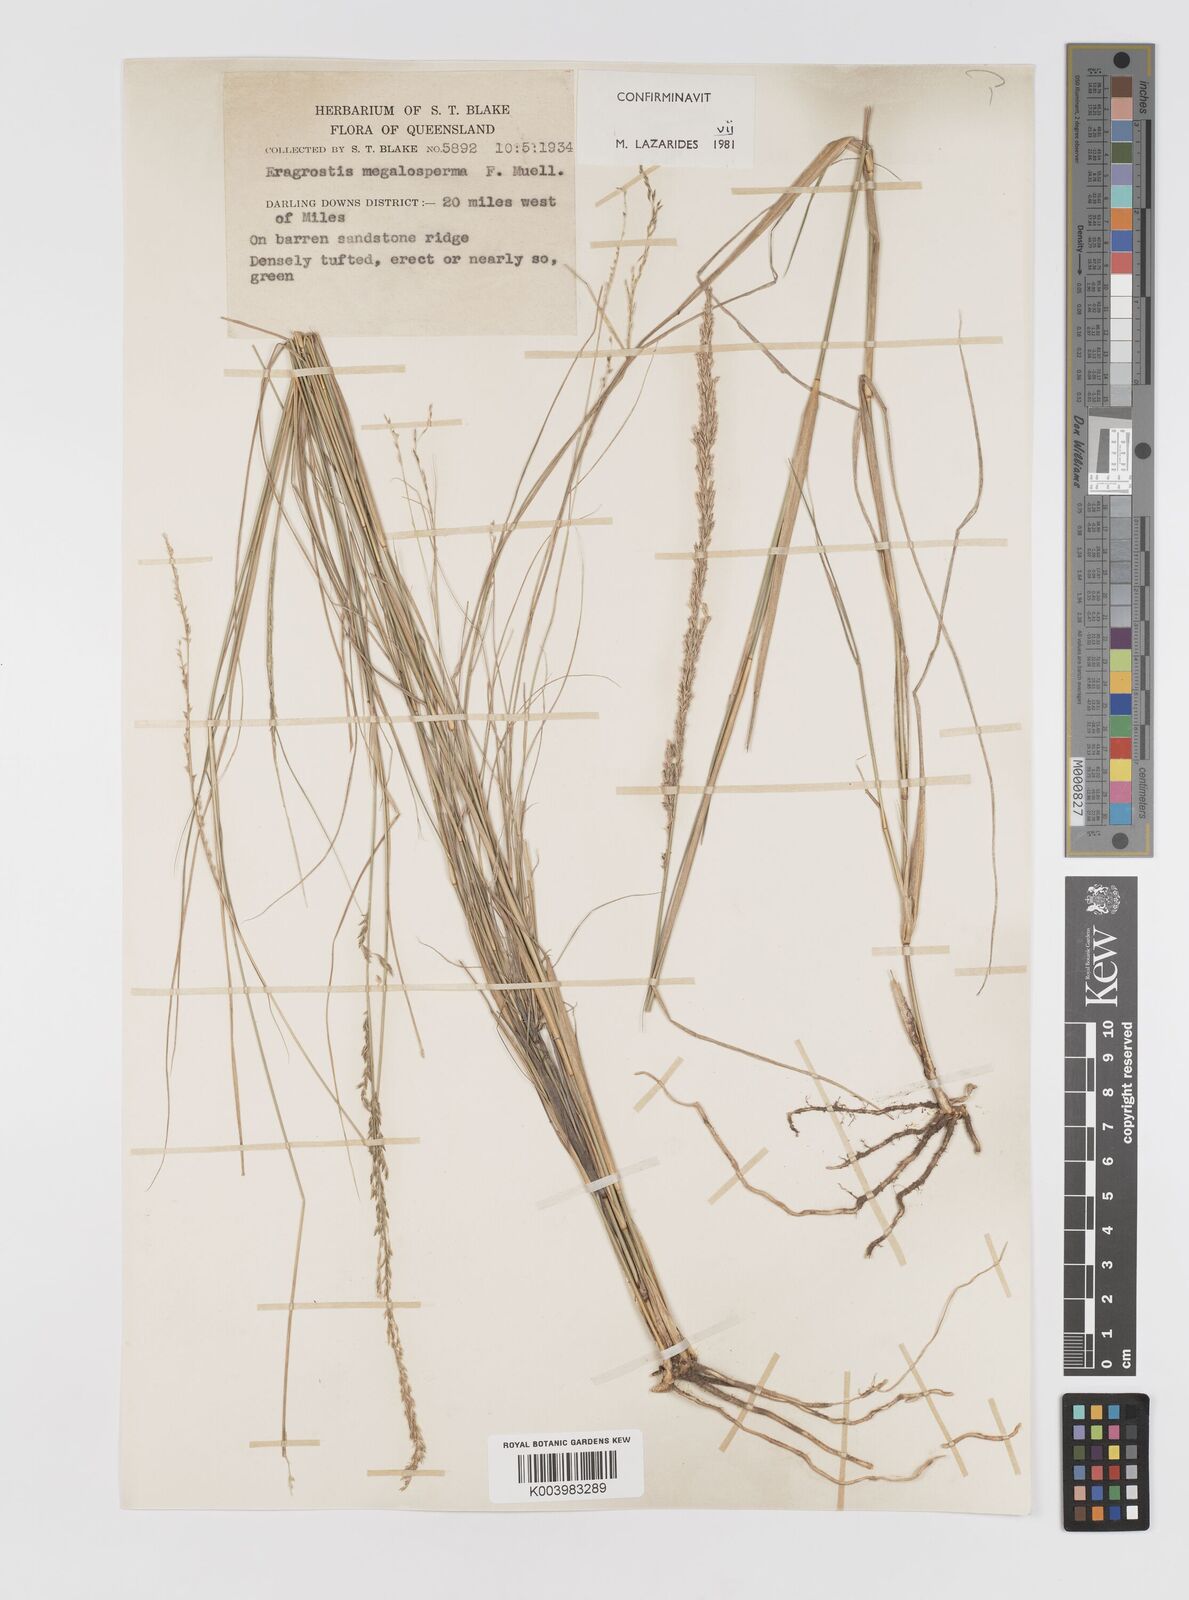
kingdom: Plantae
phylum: Tracheophyta
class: Liliopsida
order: Poales
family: Poaceae
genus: Sporobolus
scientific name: Sporobolus megalospermus
